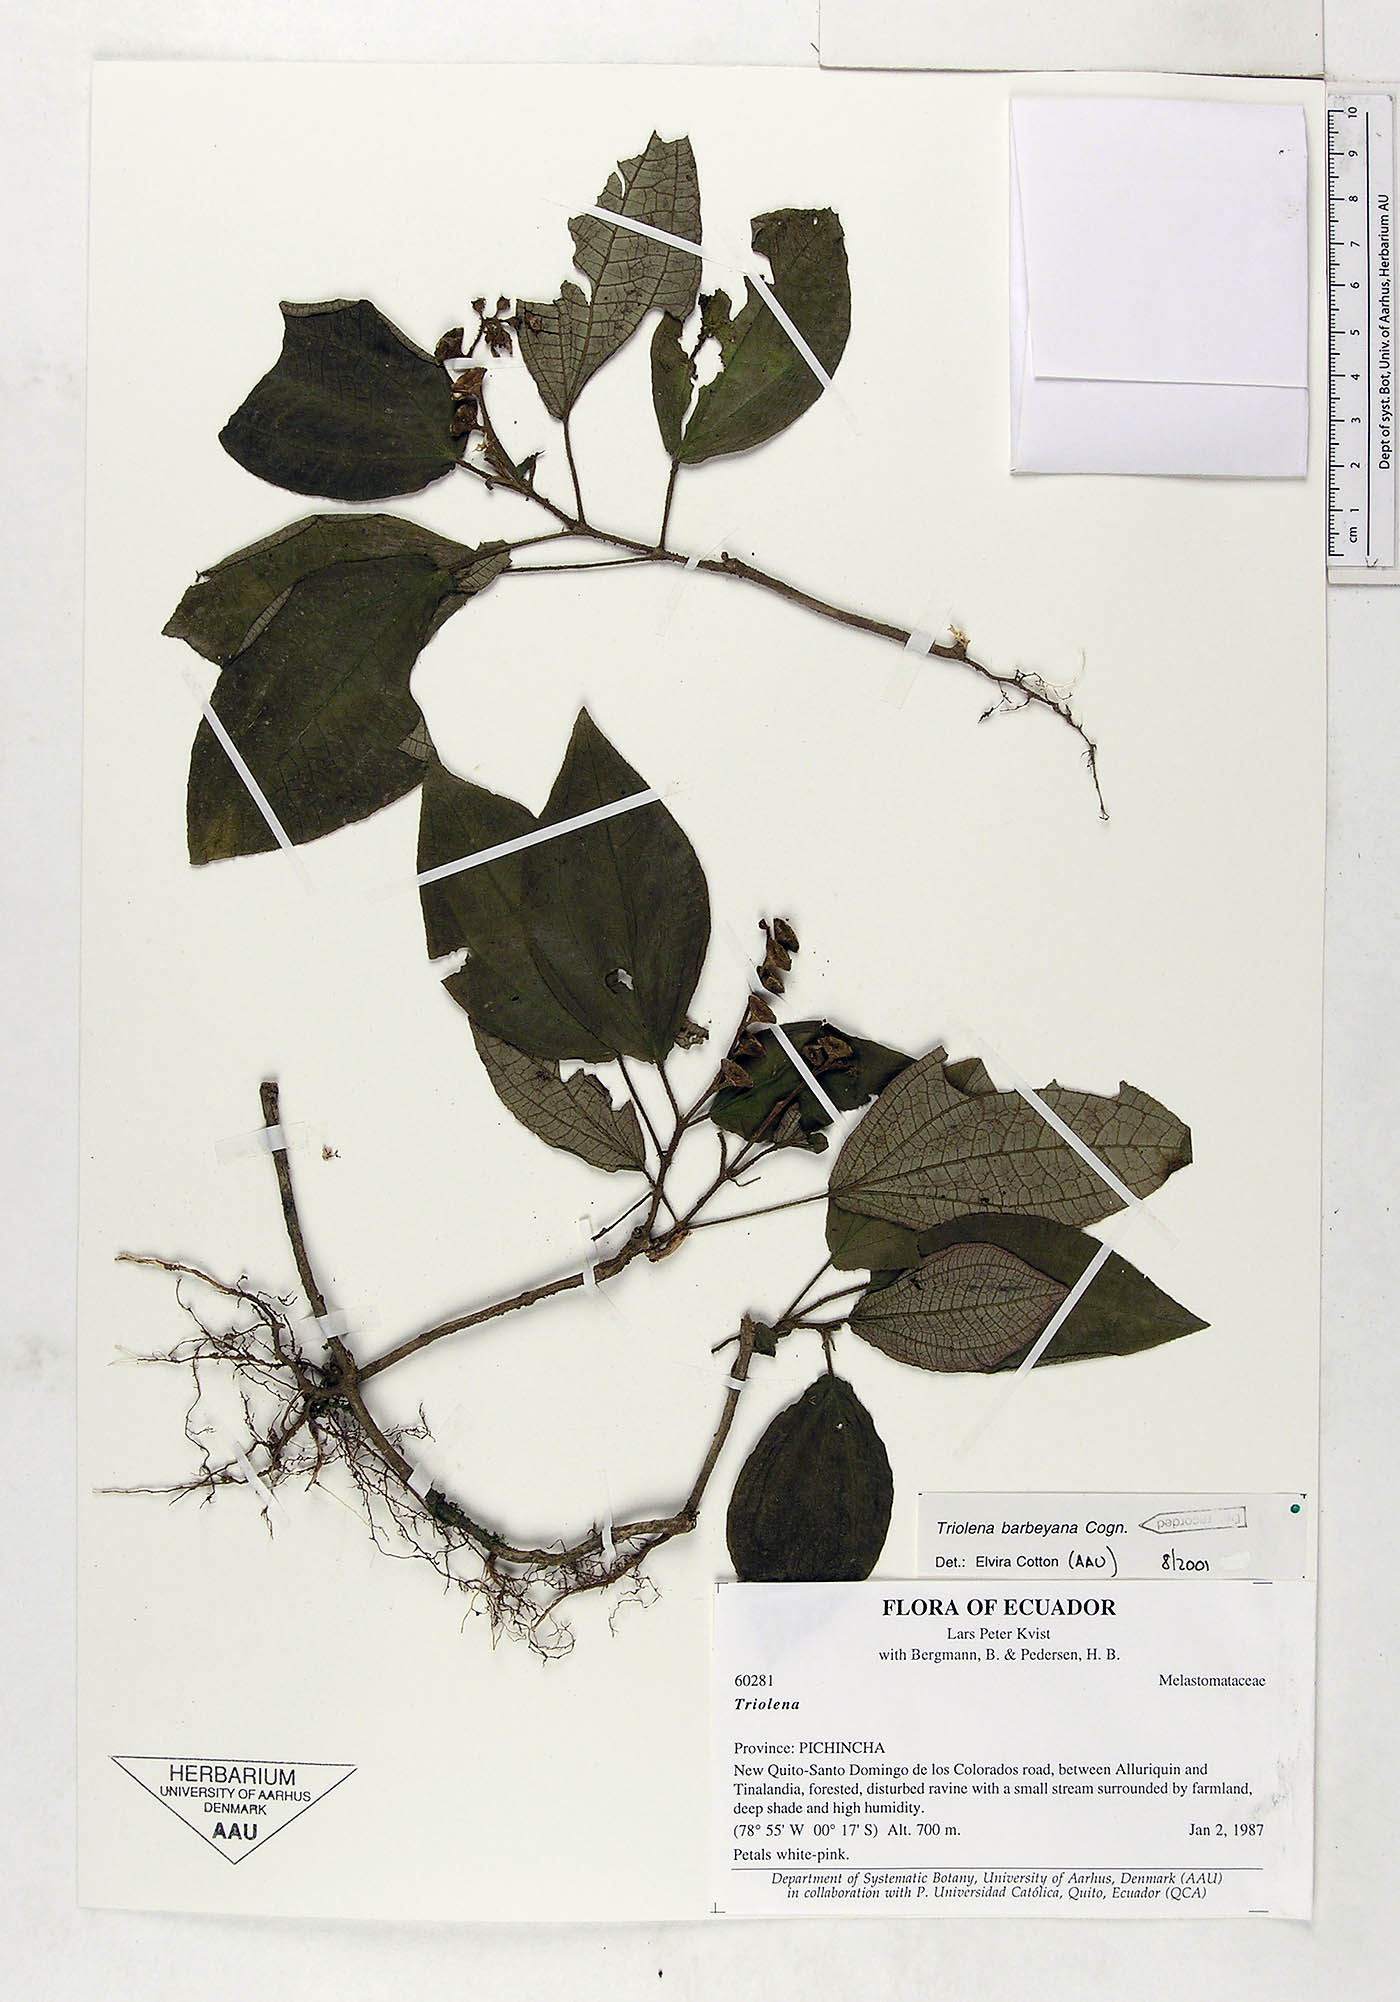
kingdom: Plantae
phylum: Tracheophyta
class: Magnoliopsida
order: Myrtales
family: Melastomataceae
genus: Triolena
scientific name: Triolena barbeyana
